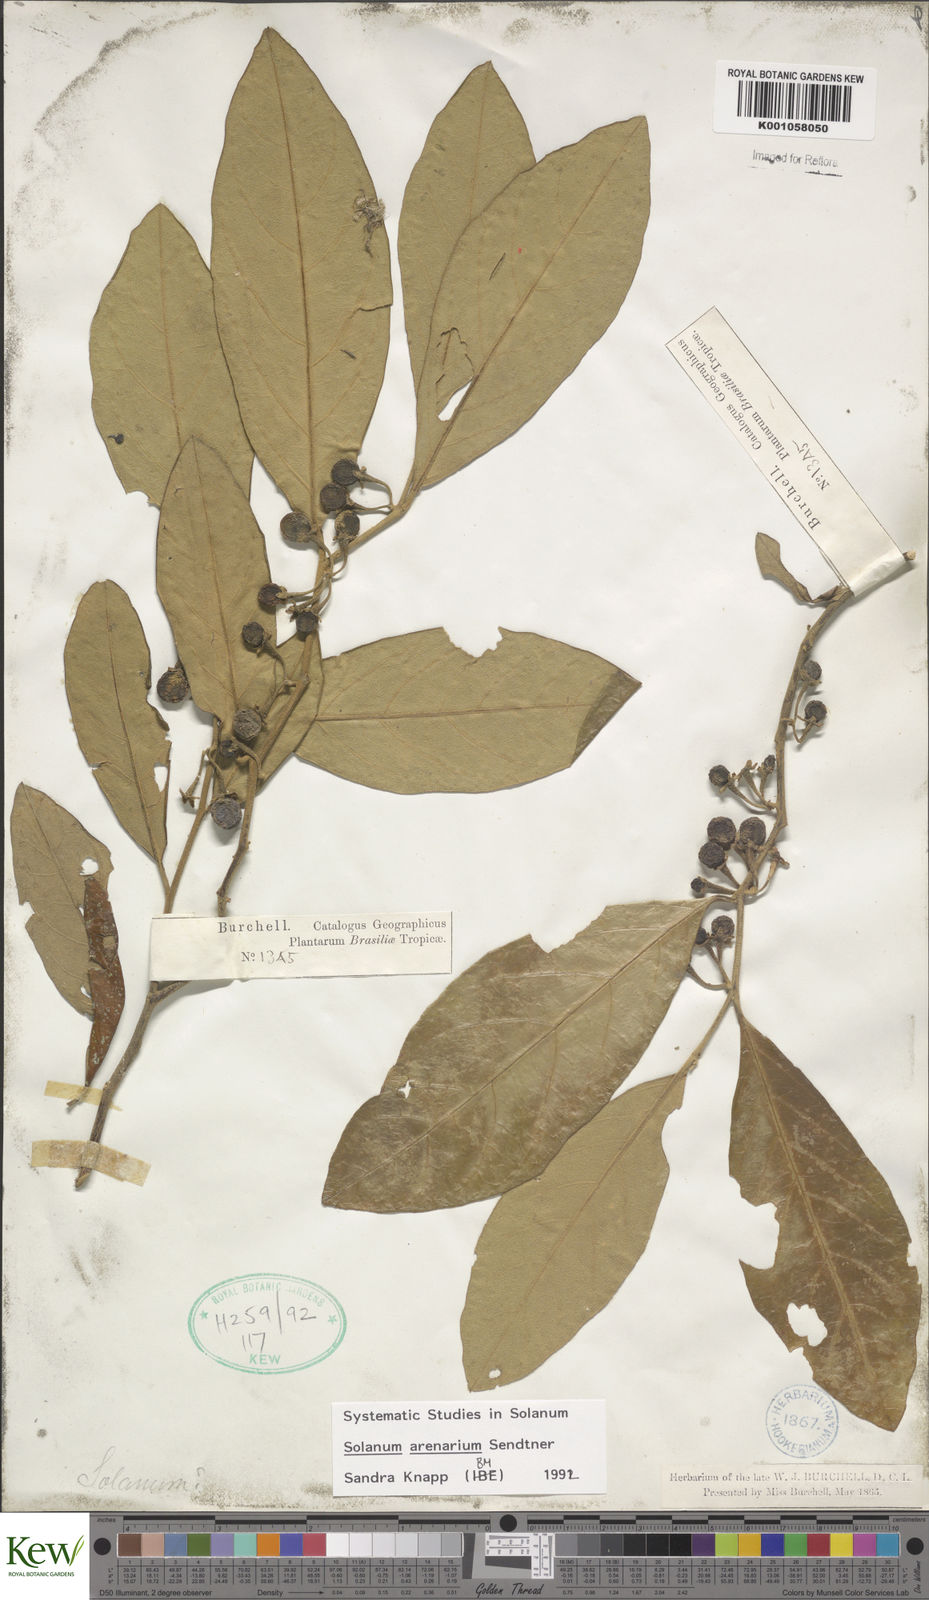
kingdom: Plantae
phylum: Tracheophyta
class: Magnoliopsida
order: Solanales
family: Solanaceae
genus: Solanum
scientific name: Solanum arenarium
